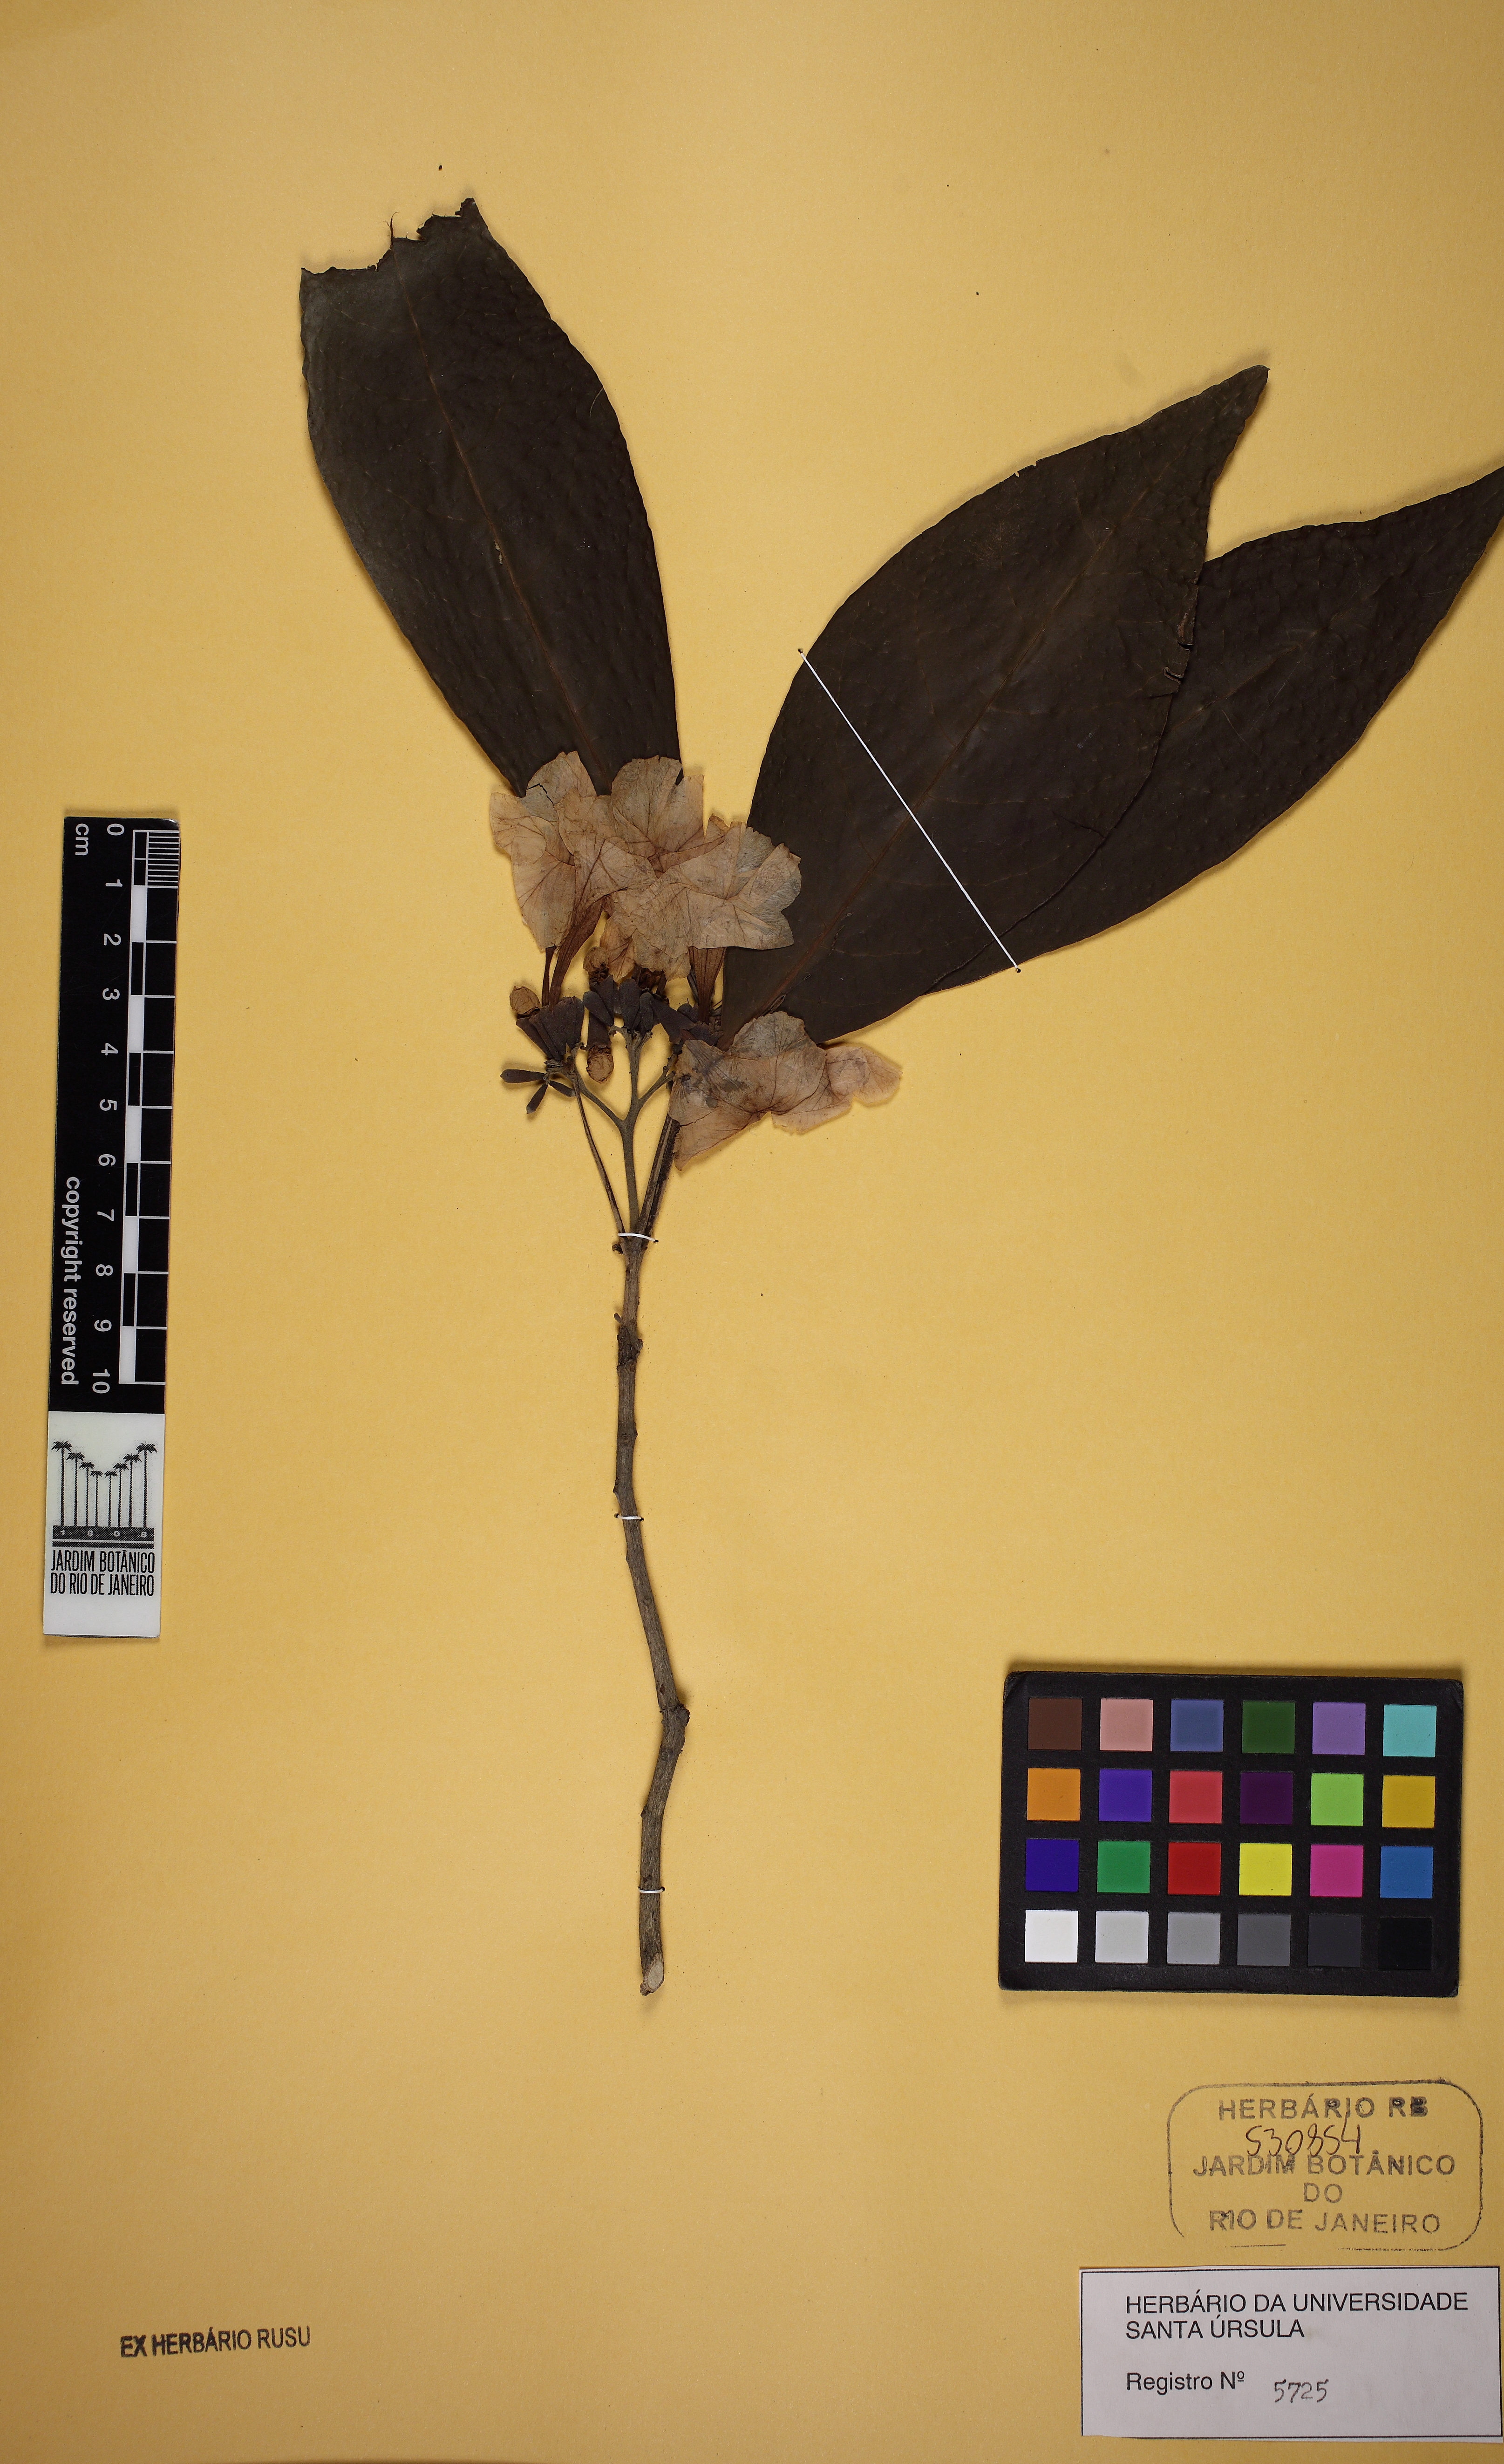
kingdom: Plantae
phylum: Tracheophyta
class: Magnoliopsida
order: Boraginales
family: Cordiaceae
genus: Cordia
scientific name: Cordia taguahuyensis
